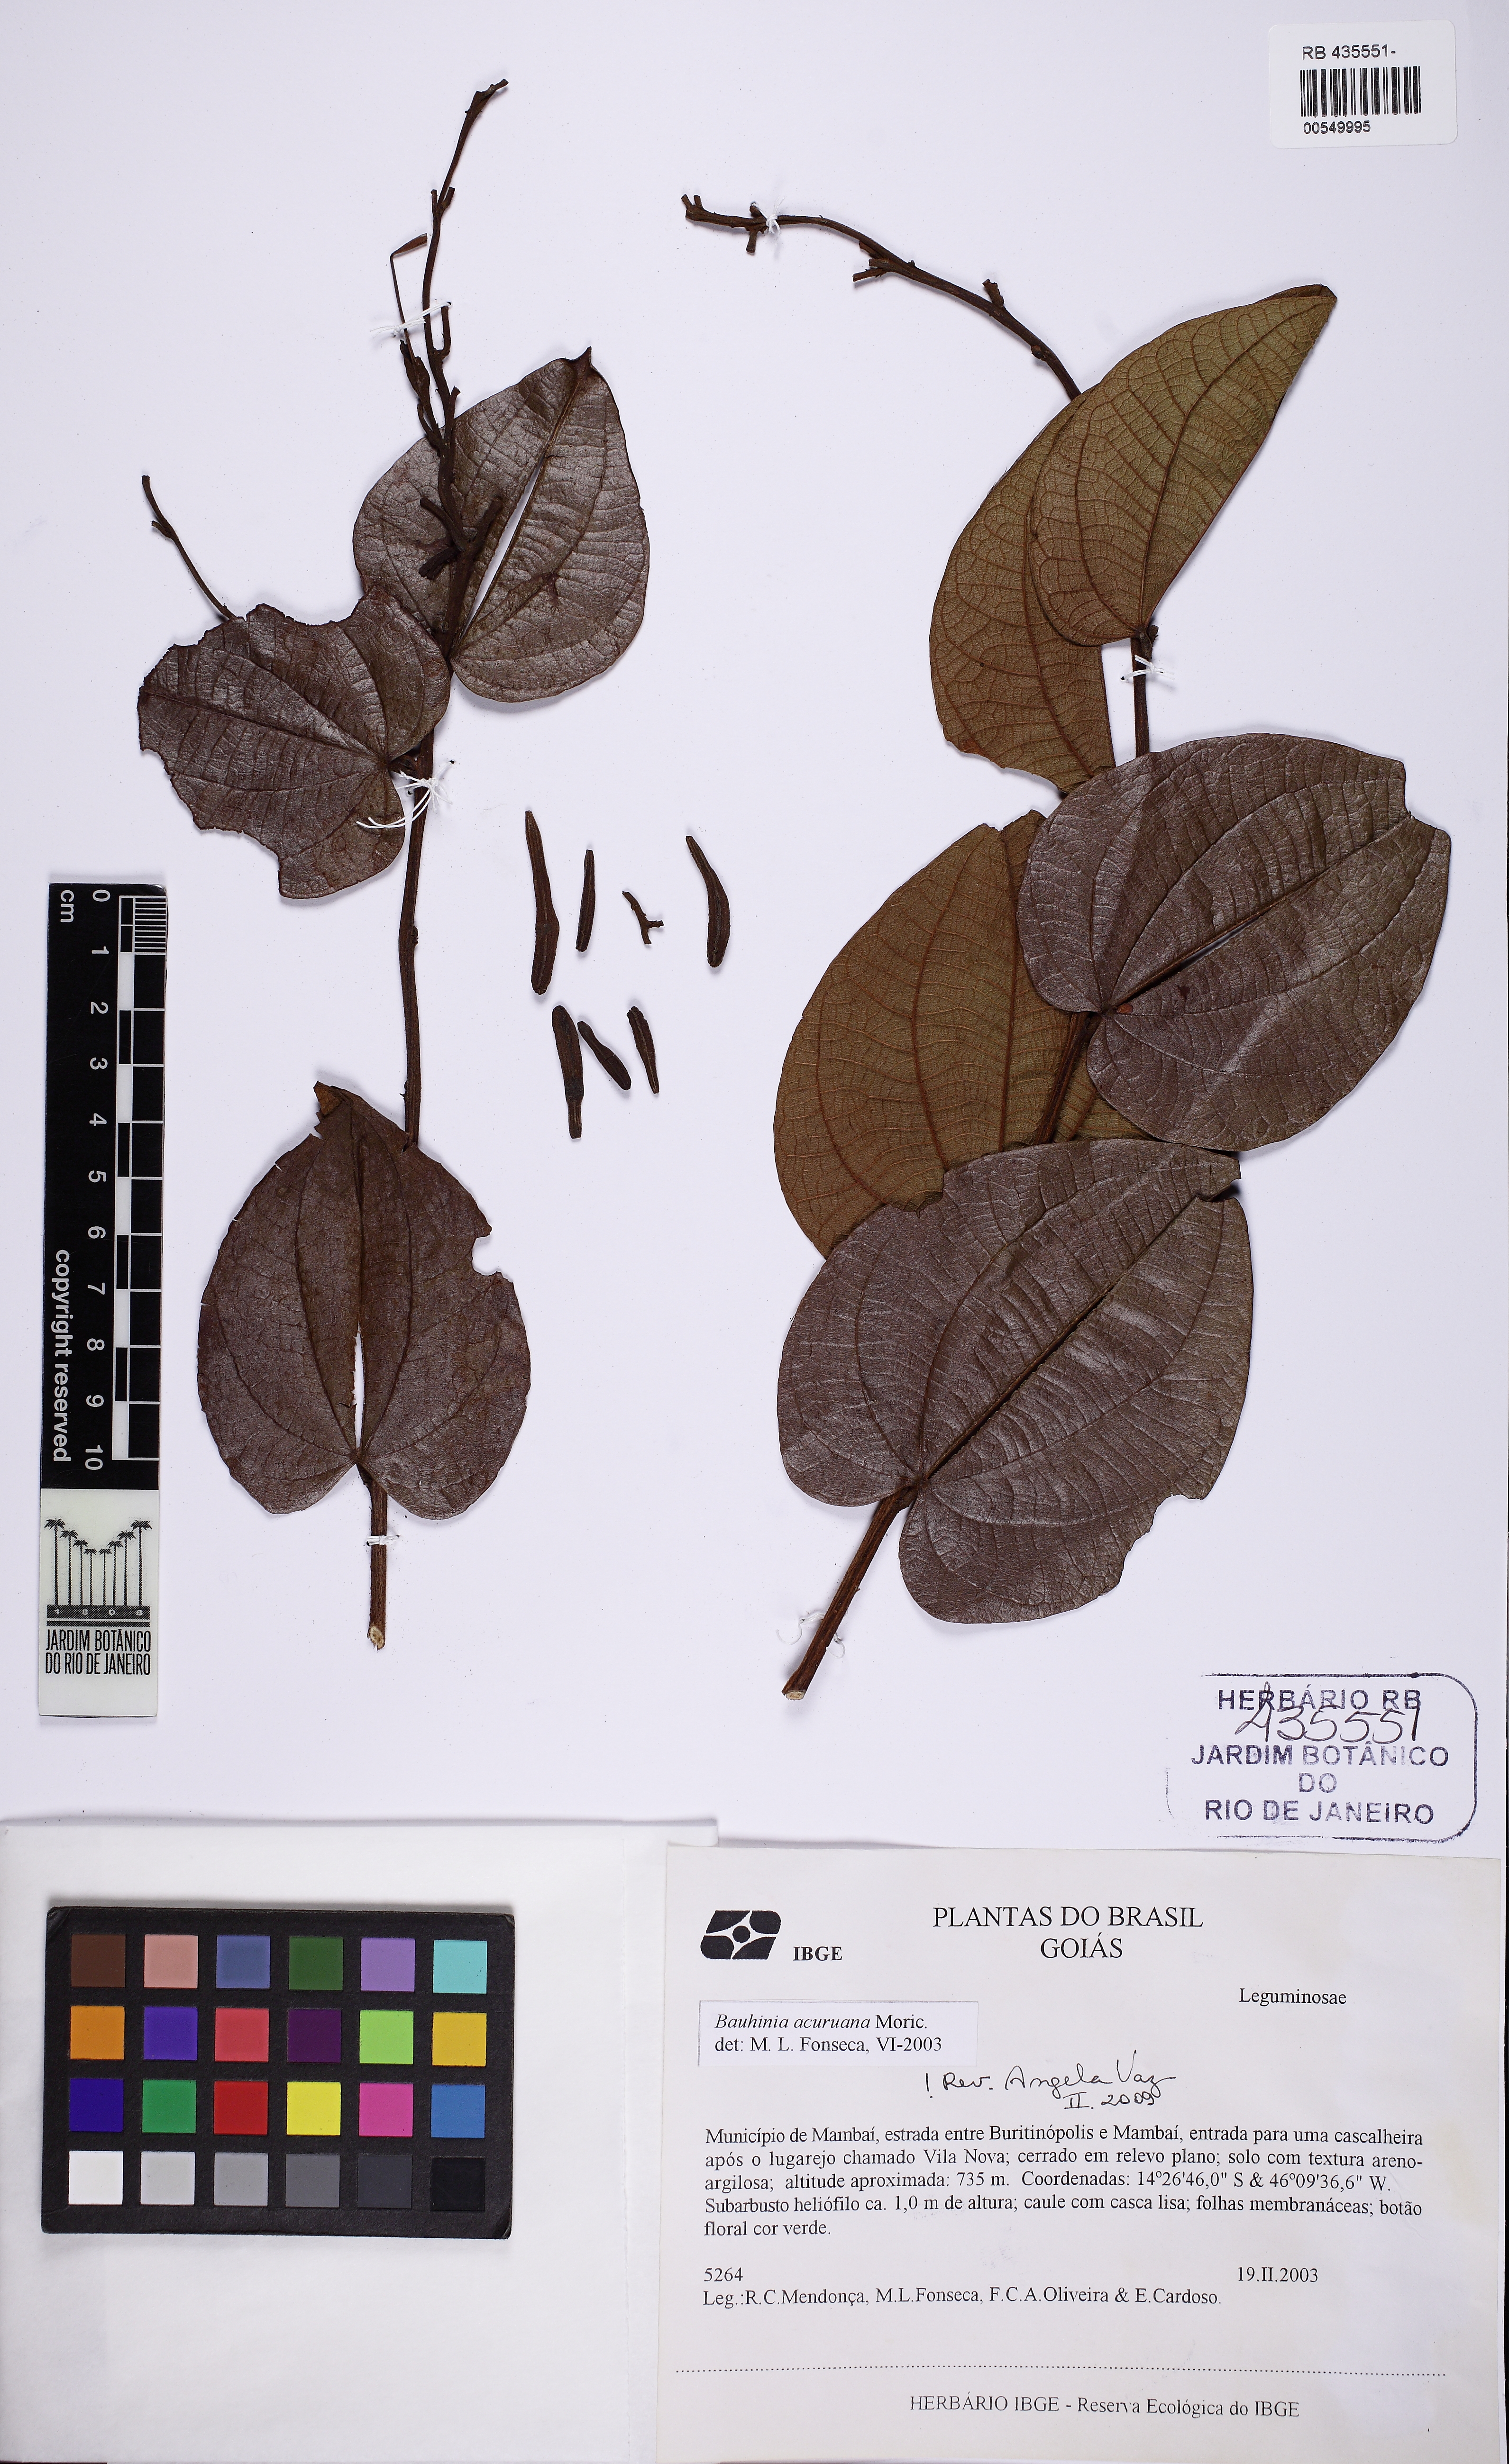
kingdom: Plantae
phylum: Tracheophyta
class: Magnoliopsida
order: Fabales
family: Fabaceae
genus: Bauhinia
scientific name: Bauhinia acuruana
